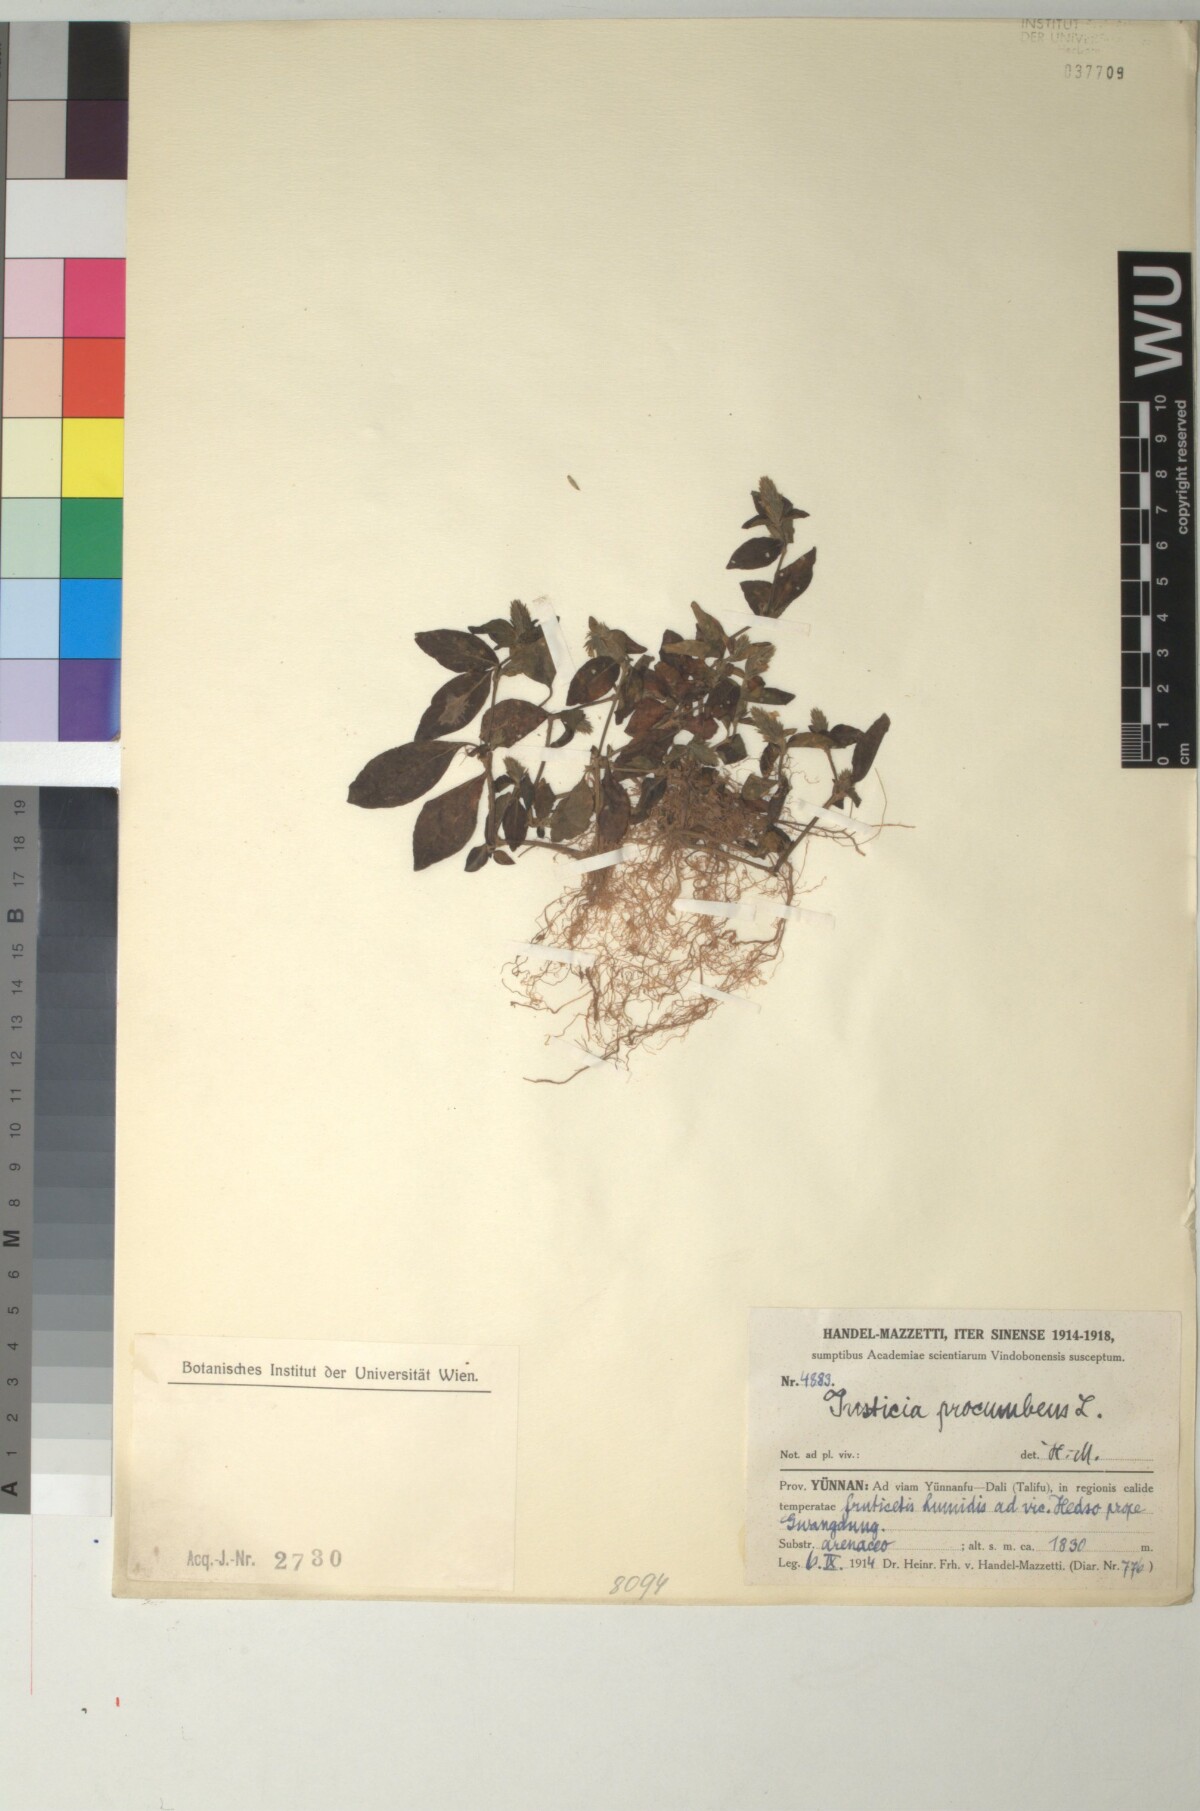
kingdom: Plantae
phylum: Tracheophyta
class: Magnoliopsida
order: Lamiales
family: Acanthaceae
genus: Rostellularia
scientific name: Rostellularia procumbens
